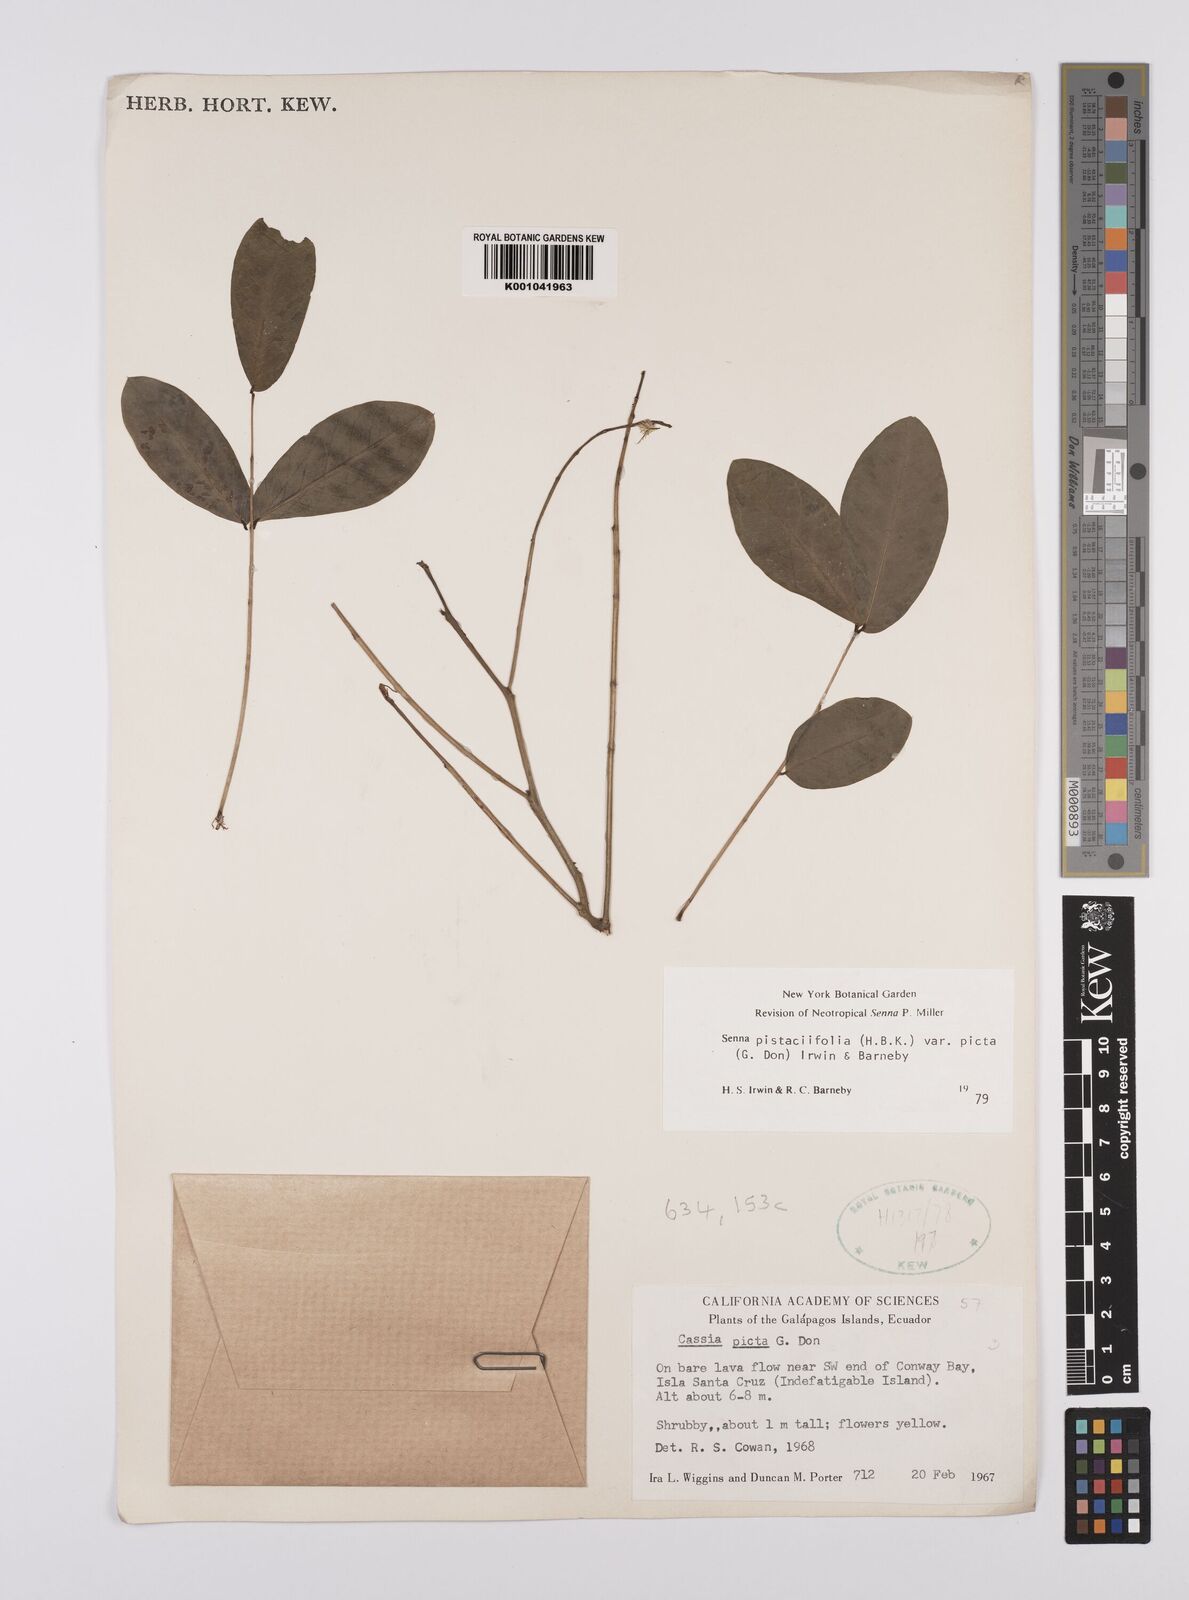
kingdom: Plantae
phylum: Tracheophyta
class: Magnoliopsida
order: Fabales
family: Fabaceae
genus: Senna
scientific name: Senna pistaciifolia
